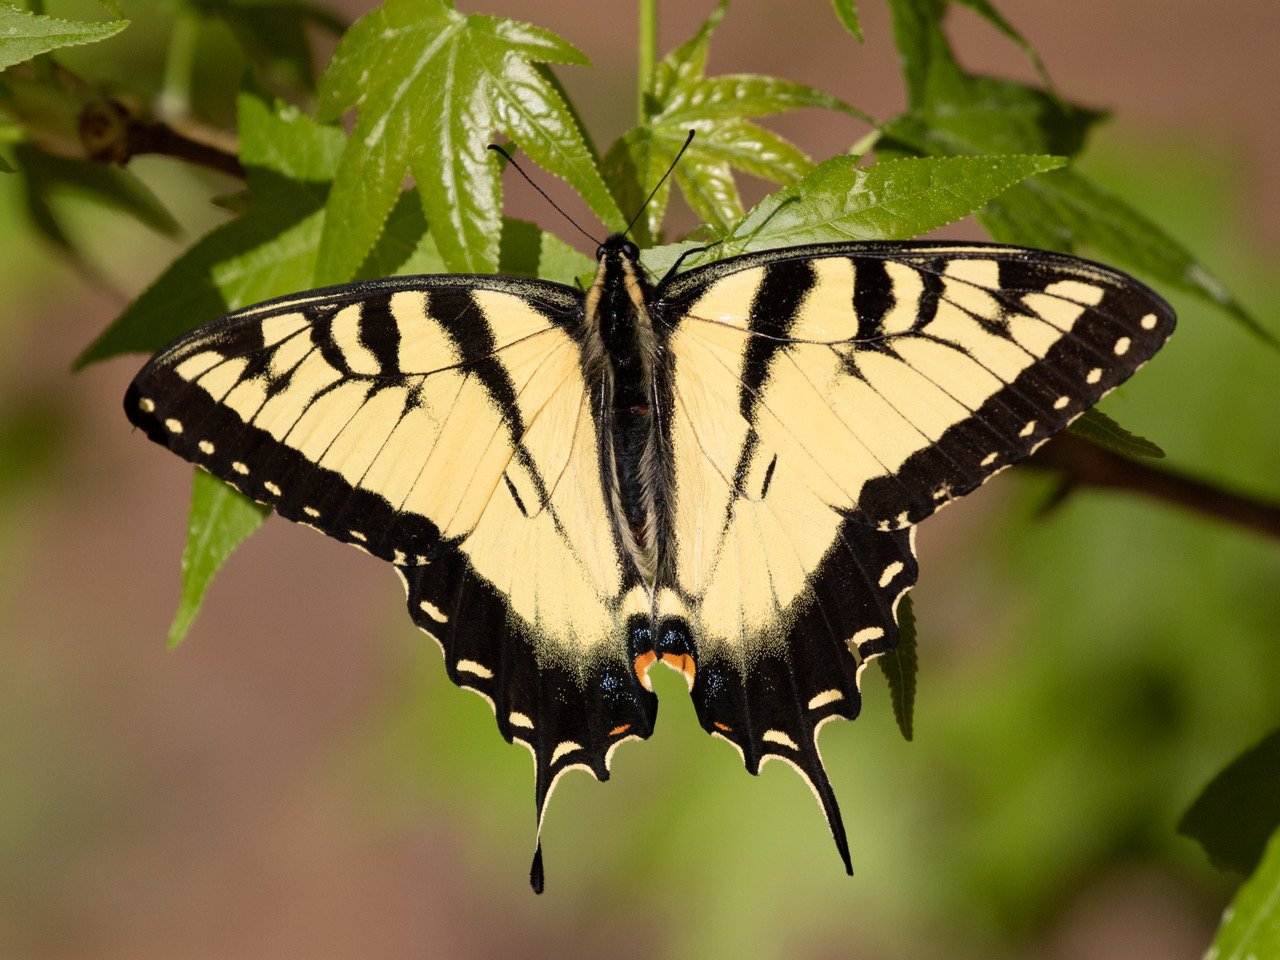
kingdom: Animalia
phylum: Arthropoda
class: Insecta
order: Lepidoptera
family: Papilionidae
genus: Pterourus
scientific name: Pterourus glaucus
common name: Eastern Tiger Swallowtail
